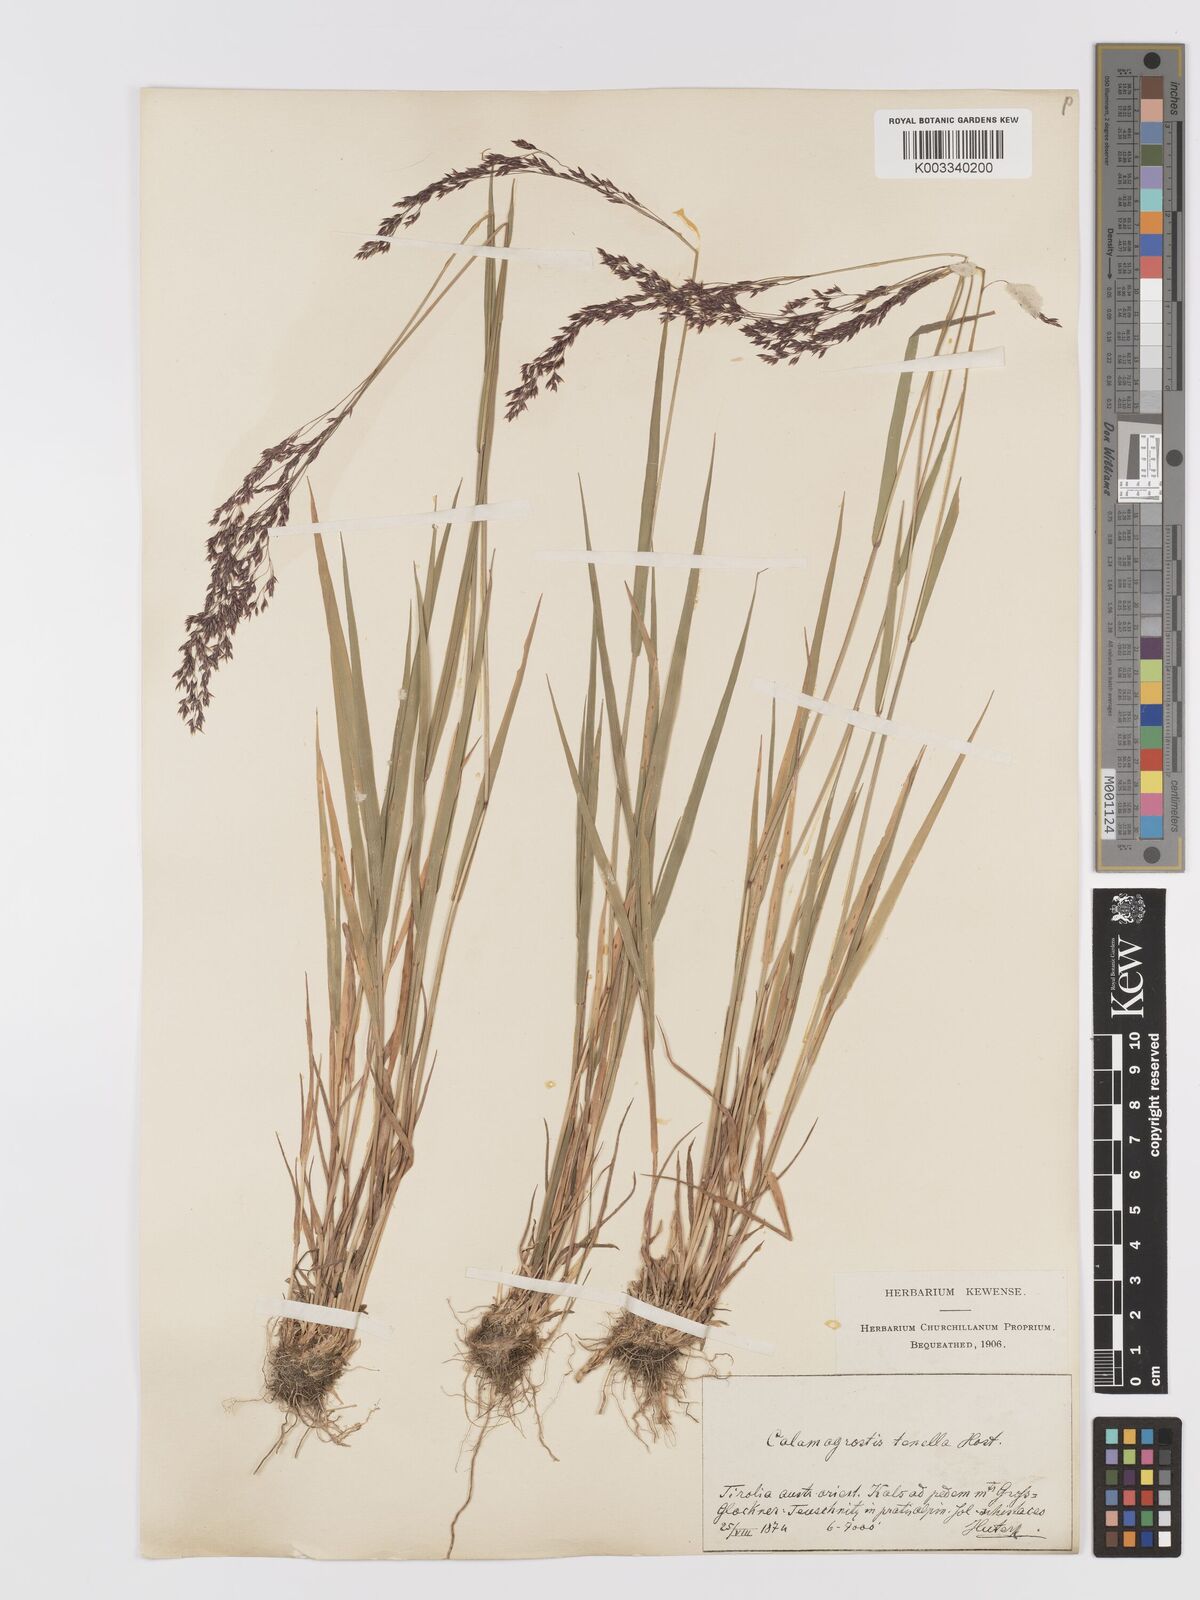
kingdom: Plantae
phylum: Tracheophyta
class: Liliopsida
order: Poales
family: Poaceae
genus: Agrostis
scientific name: Agrostis schraderiana
